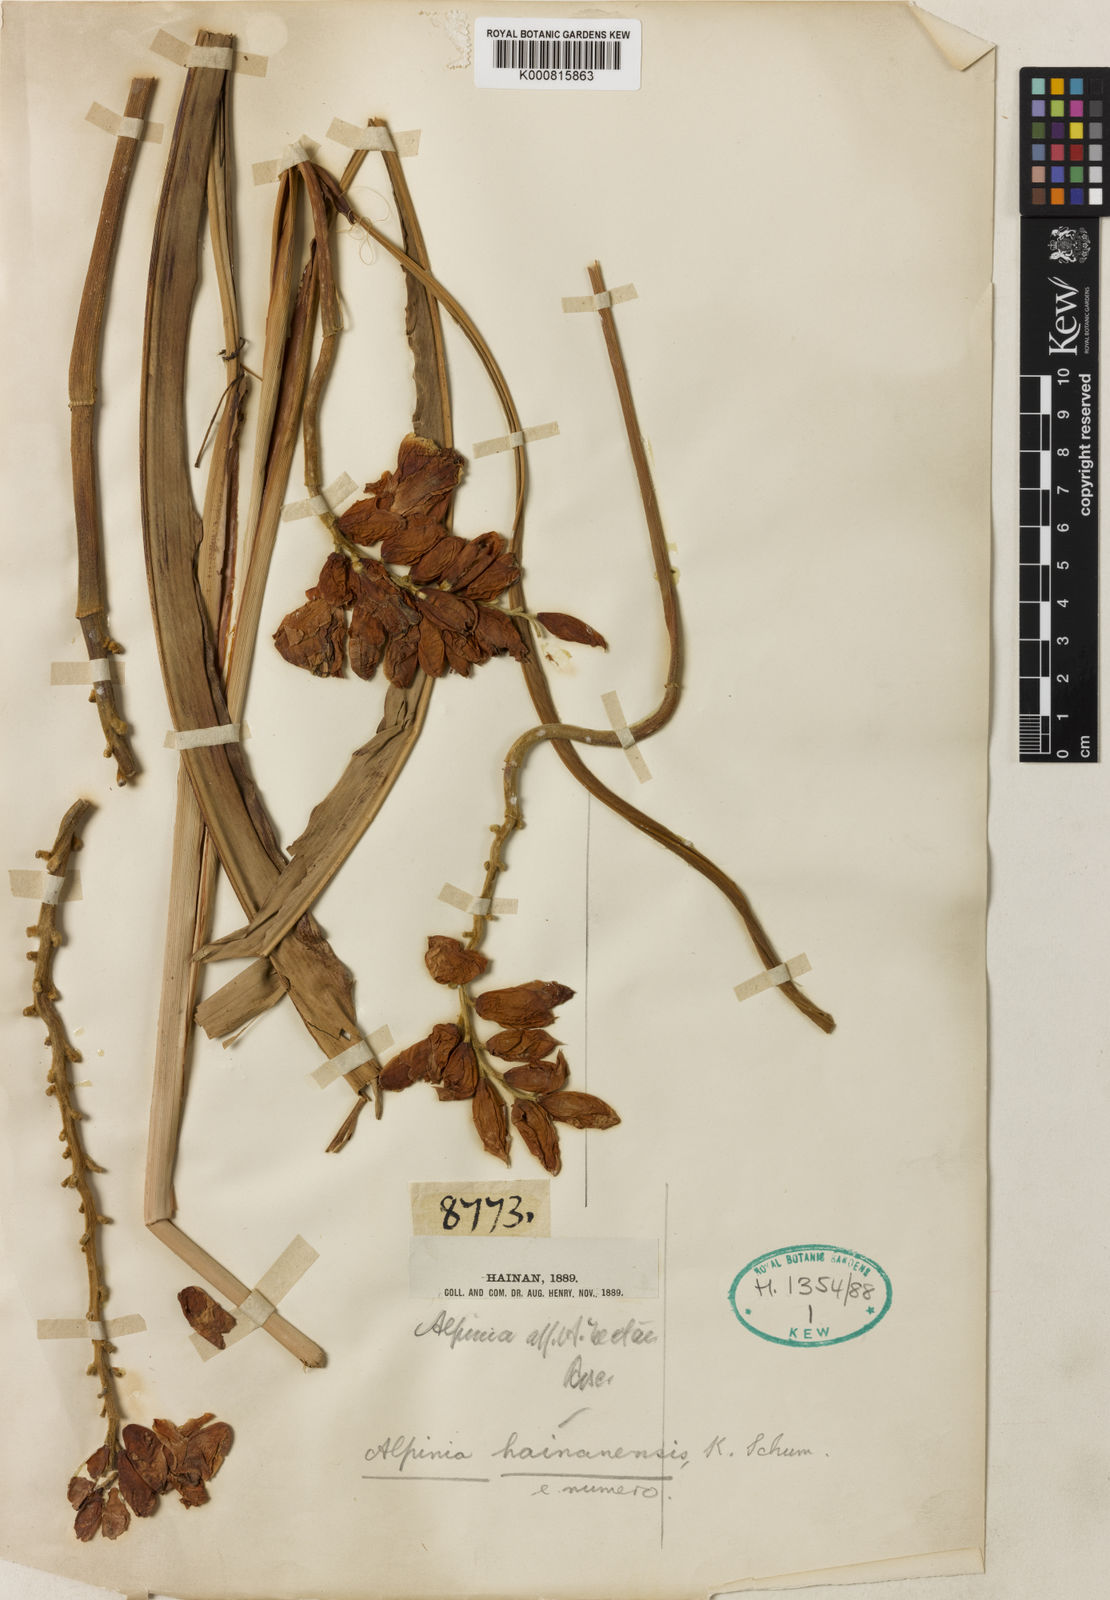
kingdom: Plantae
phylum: Tracheophyta
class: Liliopsida
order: Zingiberales
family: Zingiberaceae
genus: Alpinia
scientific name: Alpinia hainanensis
